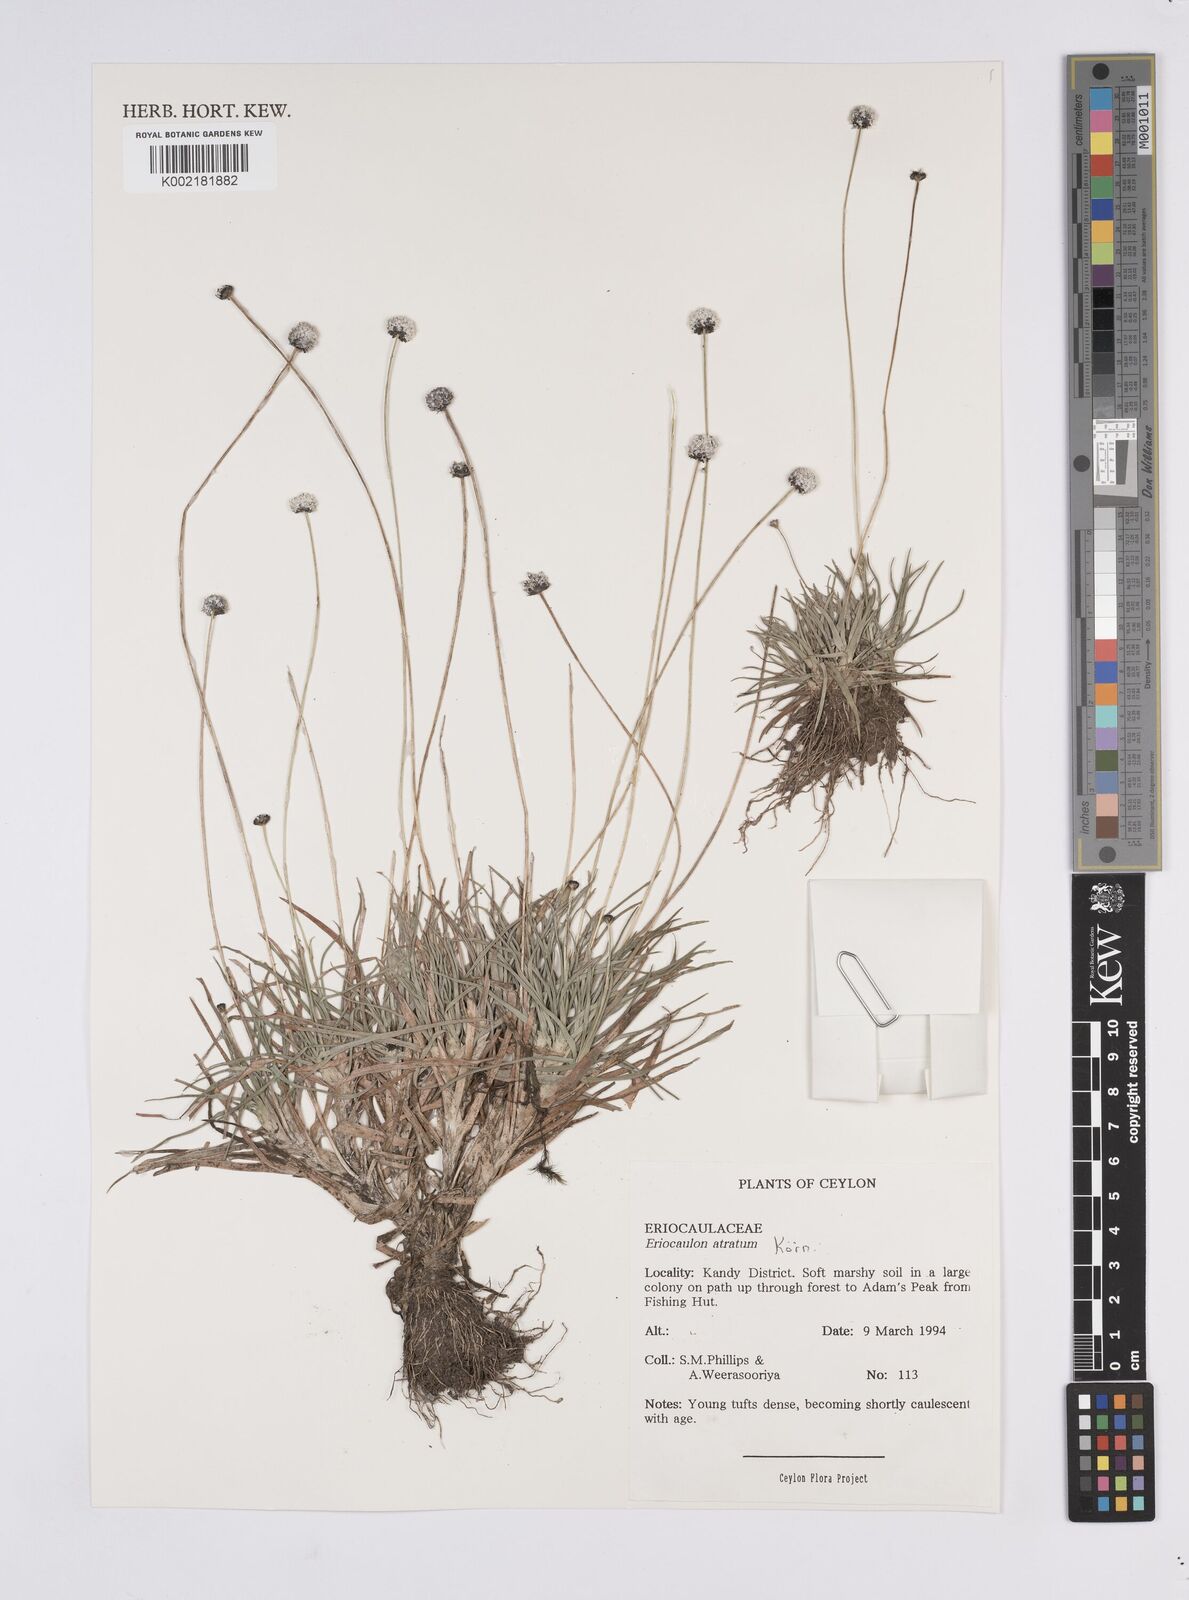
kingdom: Plantae
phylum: Tracheophyta
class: Liliopsida
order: Poales
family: Eriocaulaceae
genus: Eriocaulon
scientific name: Eriocaulon atratum
